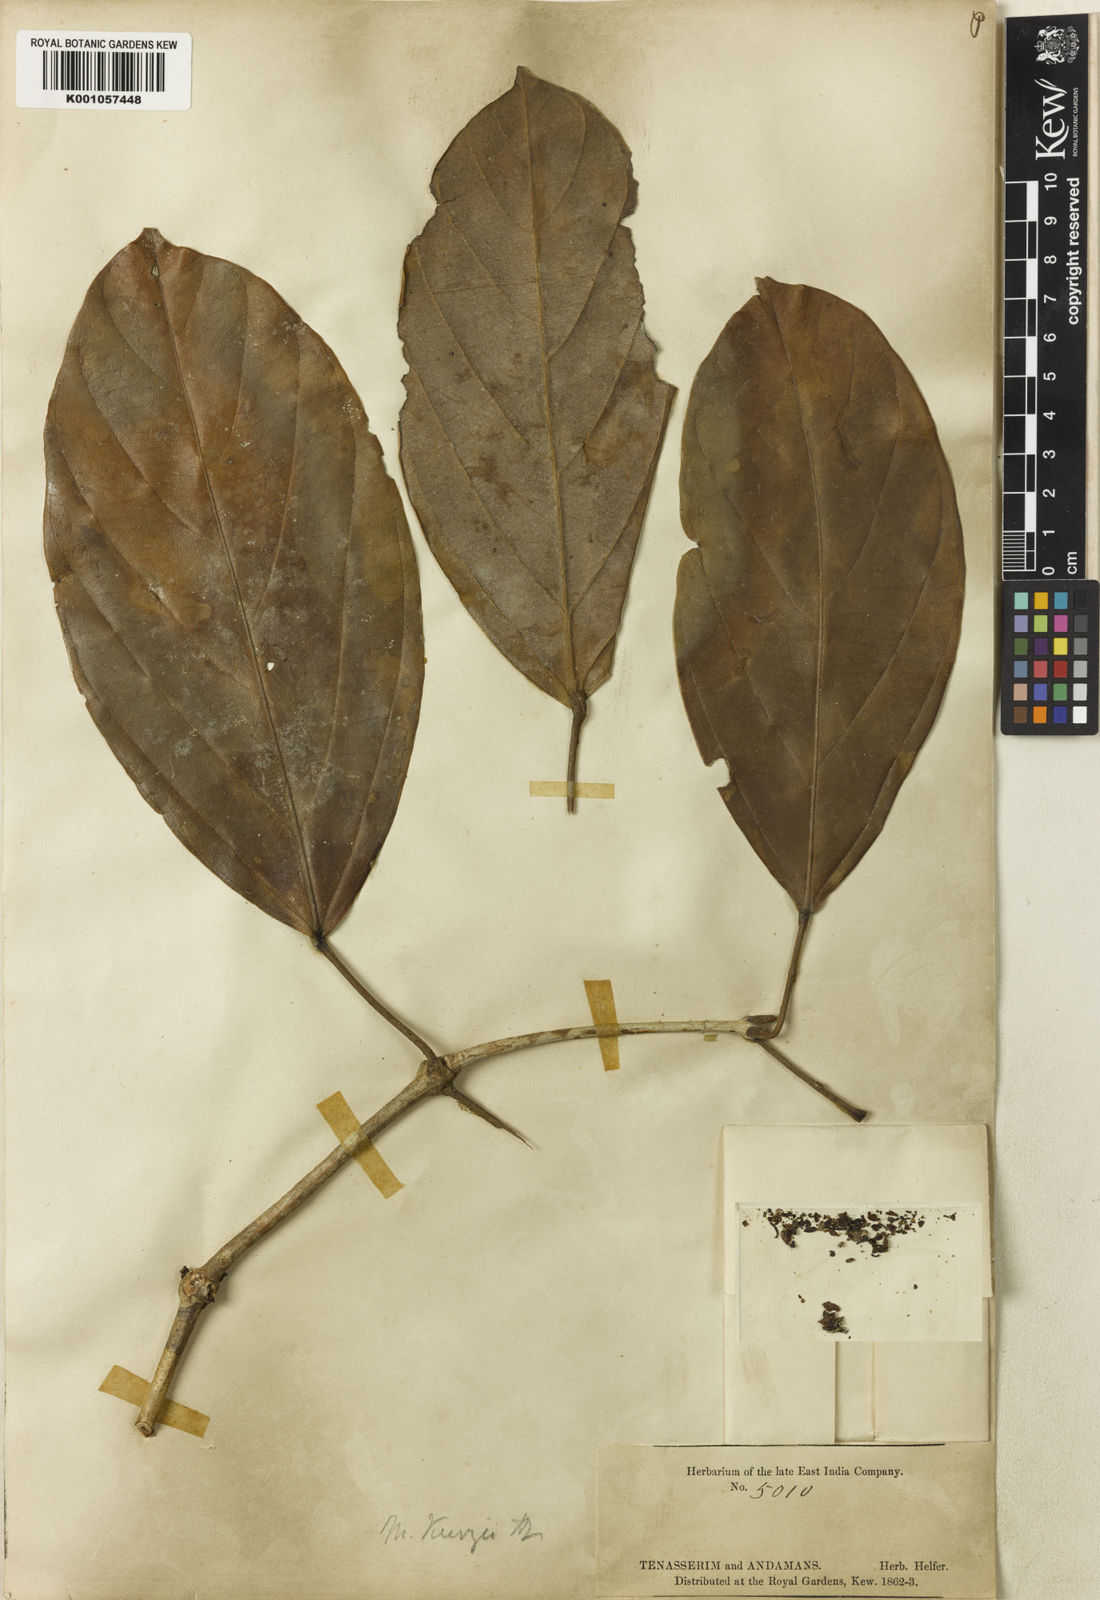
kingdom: Plantae
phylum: Tracheophyta
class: Magnoliopsida
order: Malpighiales
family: Euphorbiaceae
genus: Blumeodendron
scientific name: Blumeodendron kurzii
